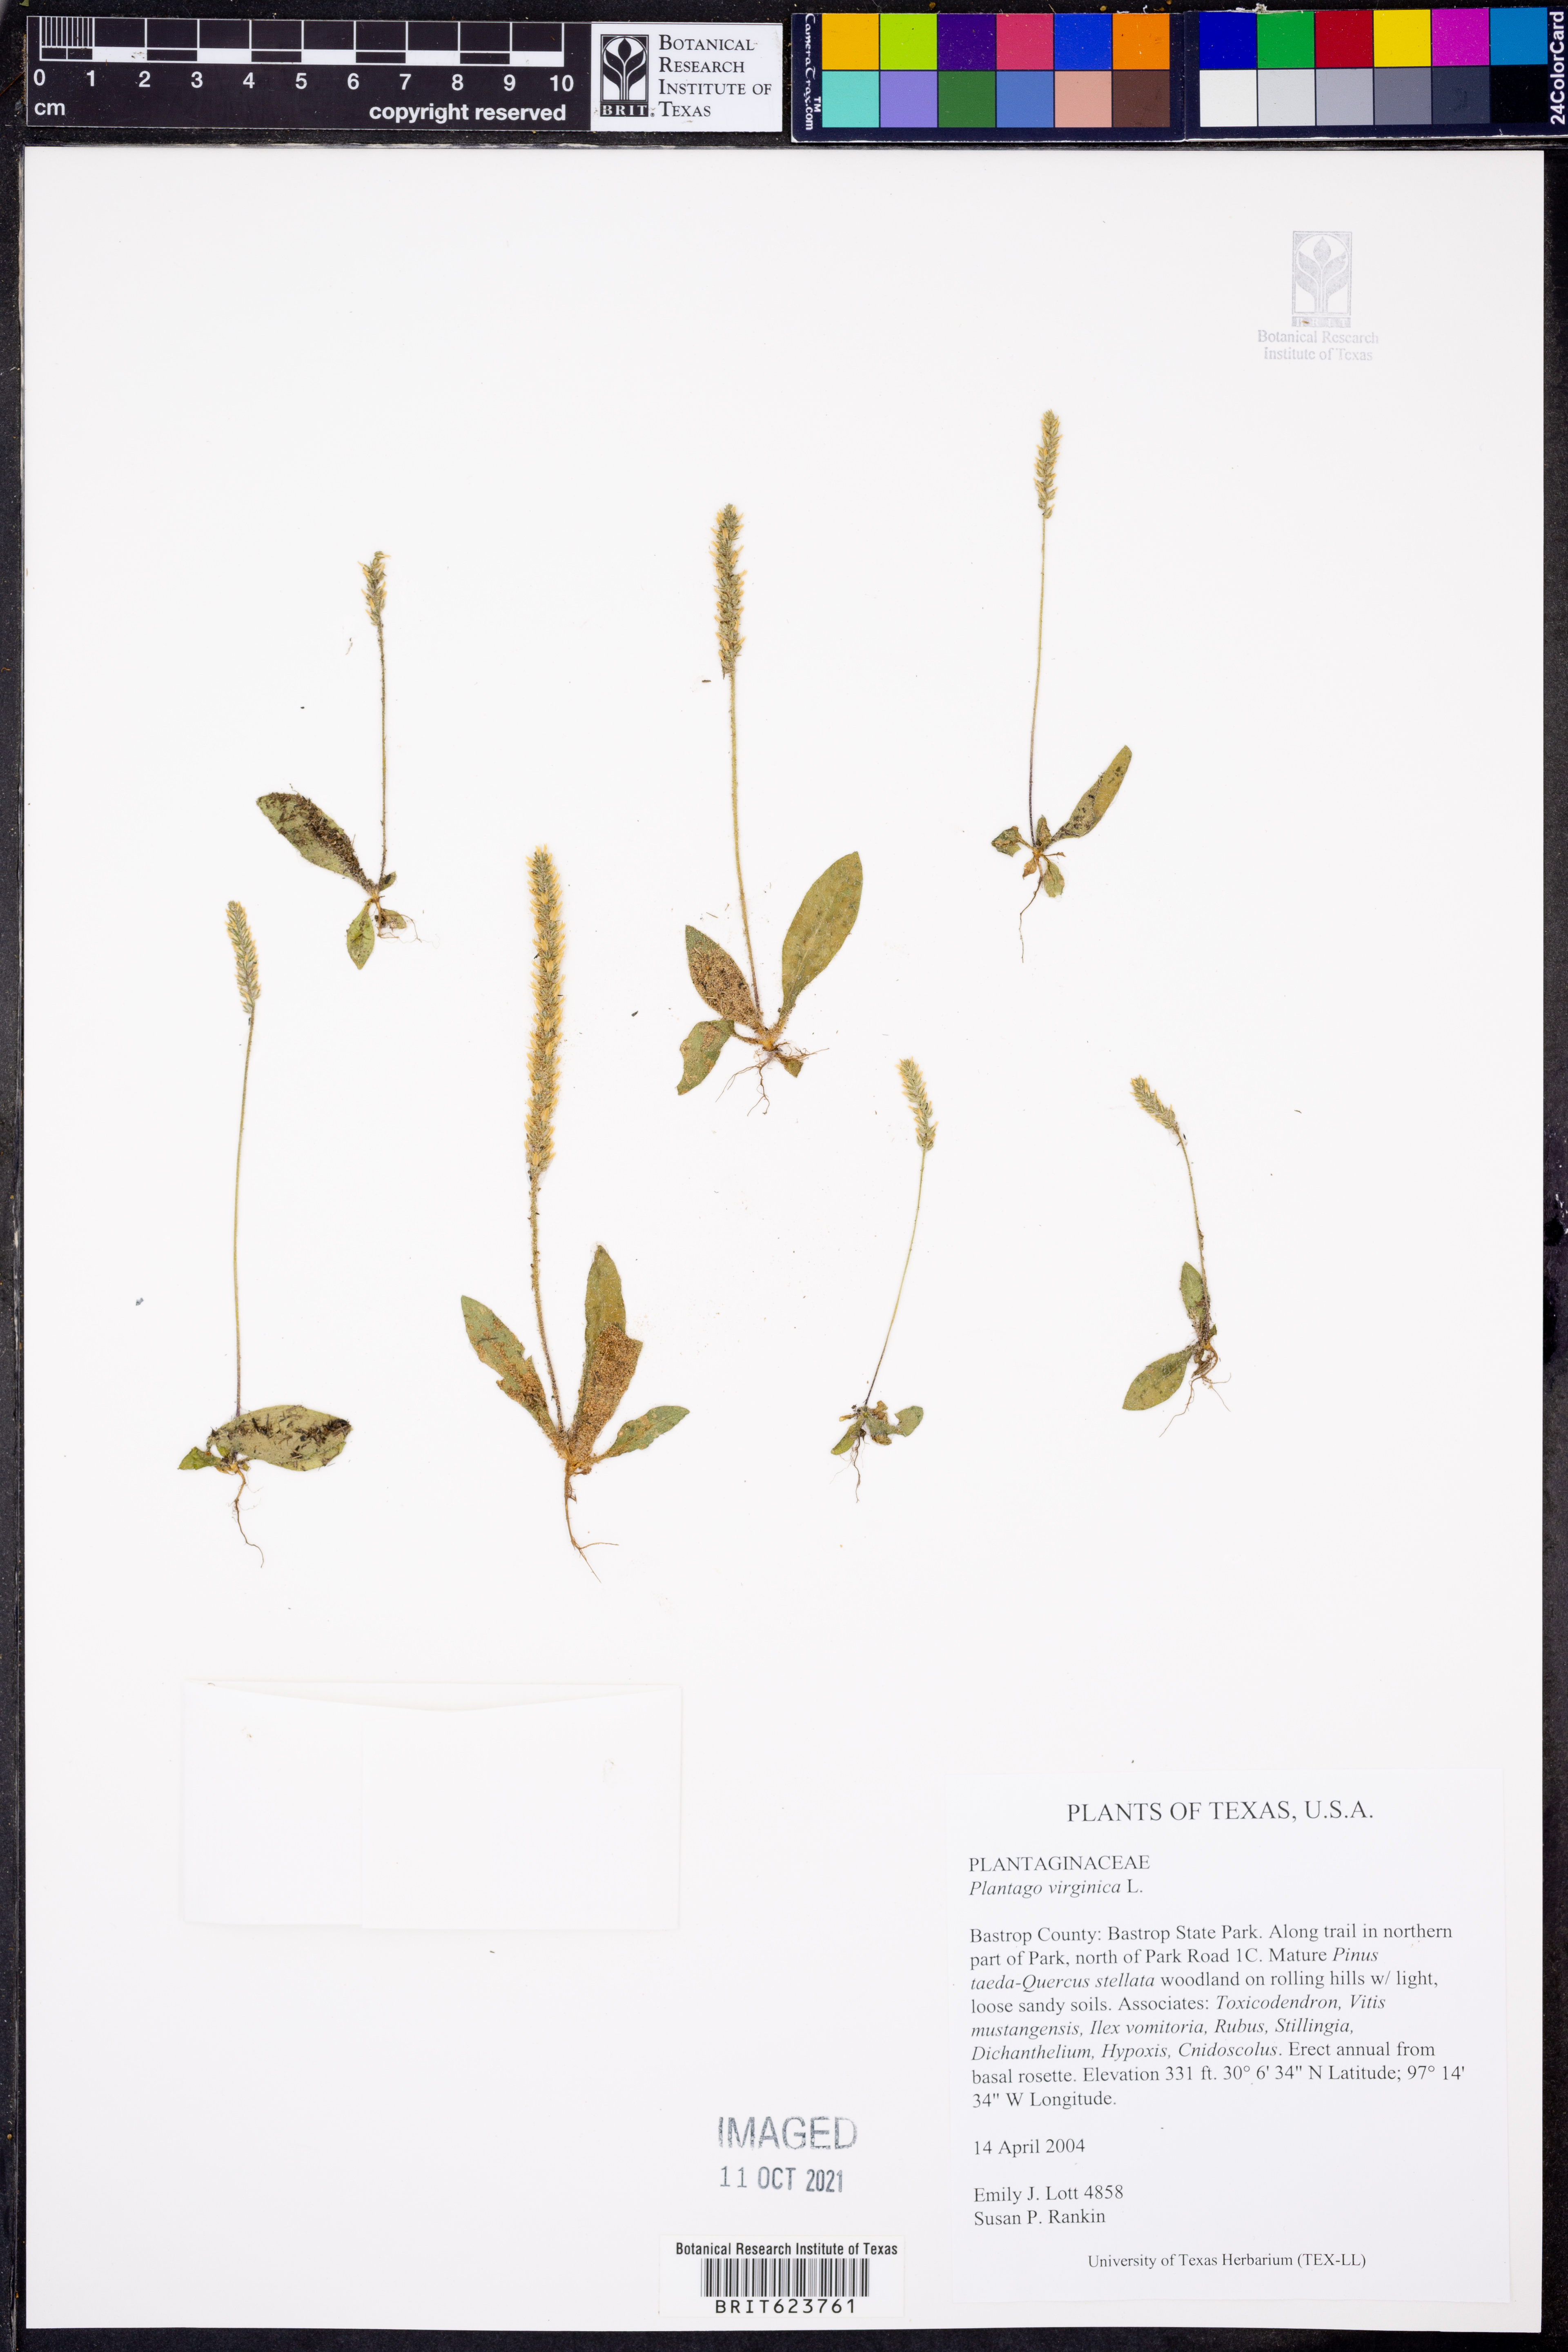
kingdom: Plantae
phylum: Tracheophyta
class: Magnoliopsida
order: Lamiales
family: Plantaginaceae
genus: Plantago
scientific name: Plantago virginica
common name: Hoary plantain
